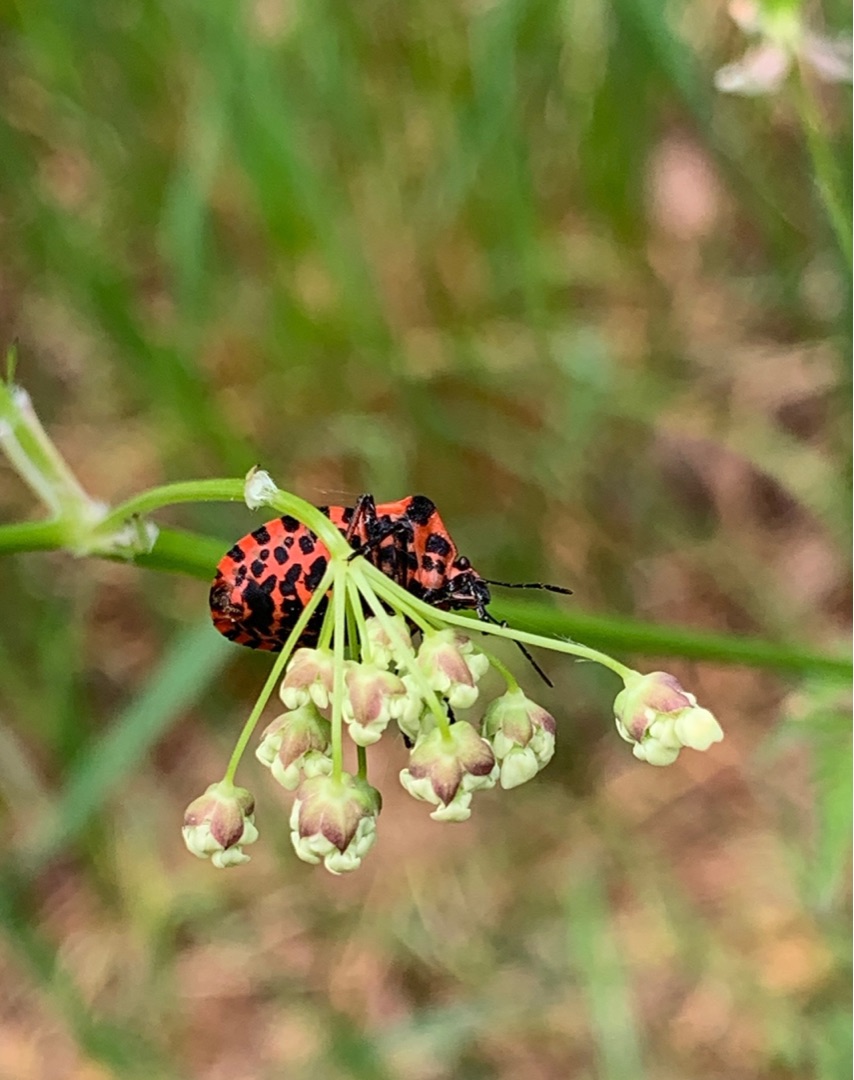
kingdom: Animalia
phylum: Arthropoda
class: Insecta
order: Hemiptera
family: Pentatomidae
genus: Graphosoma
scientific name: Graphosoma italicum
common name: Stribetæge
